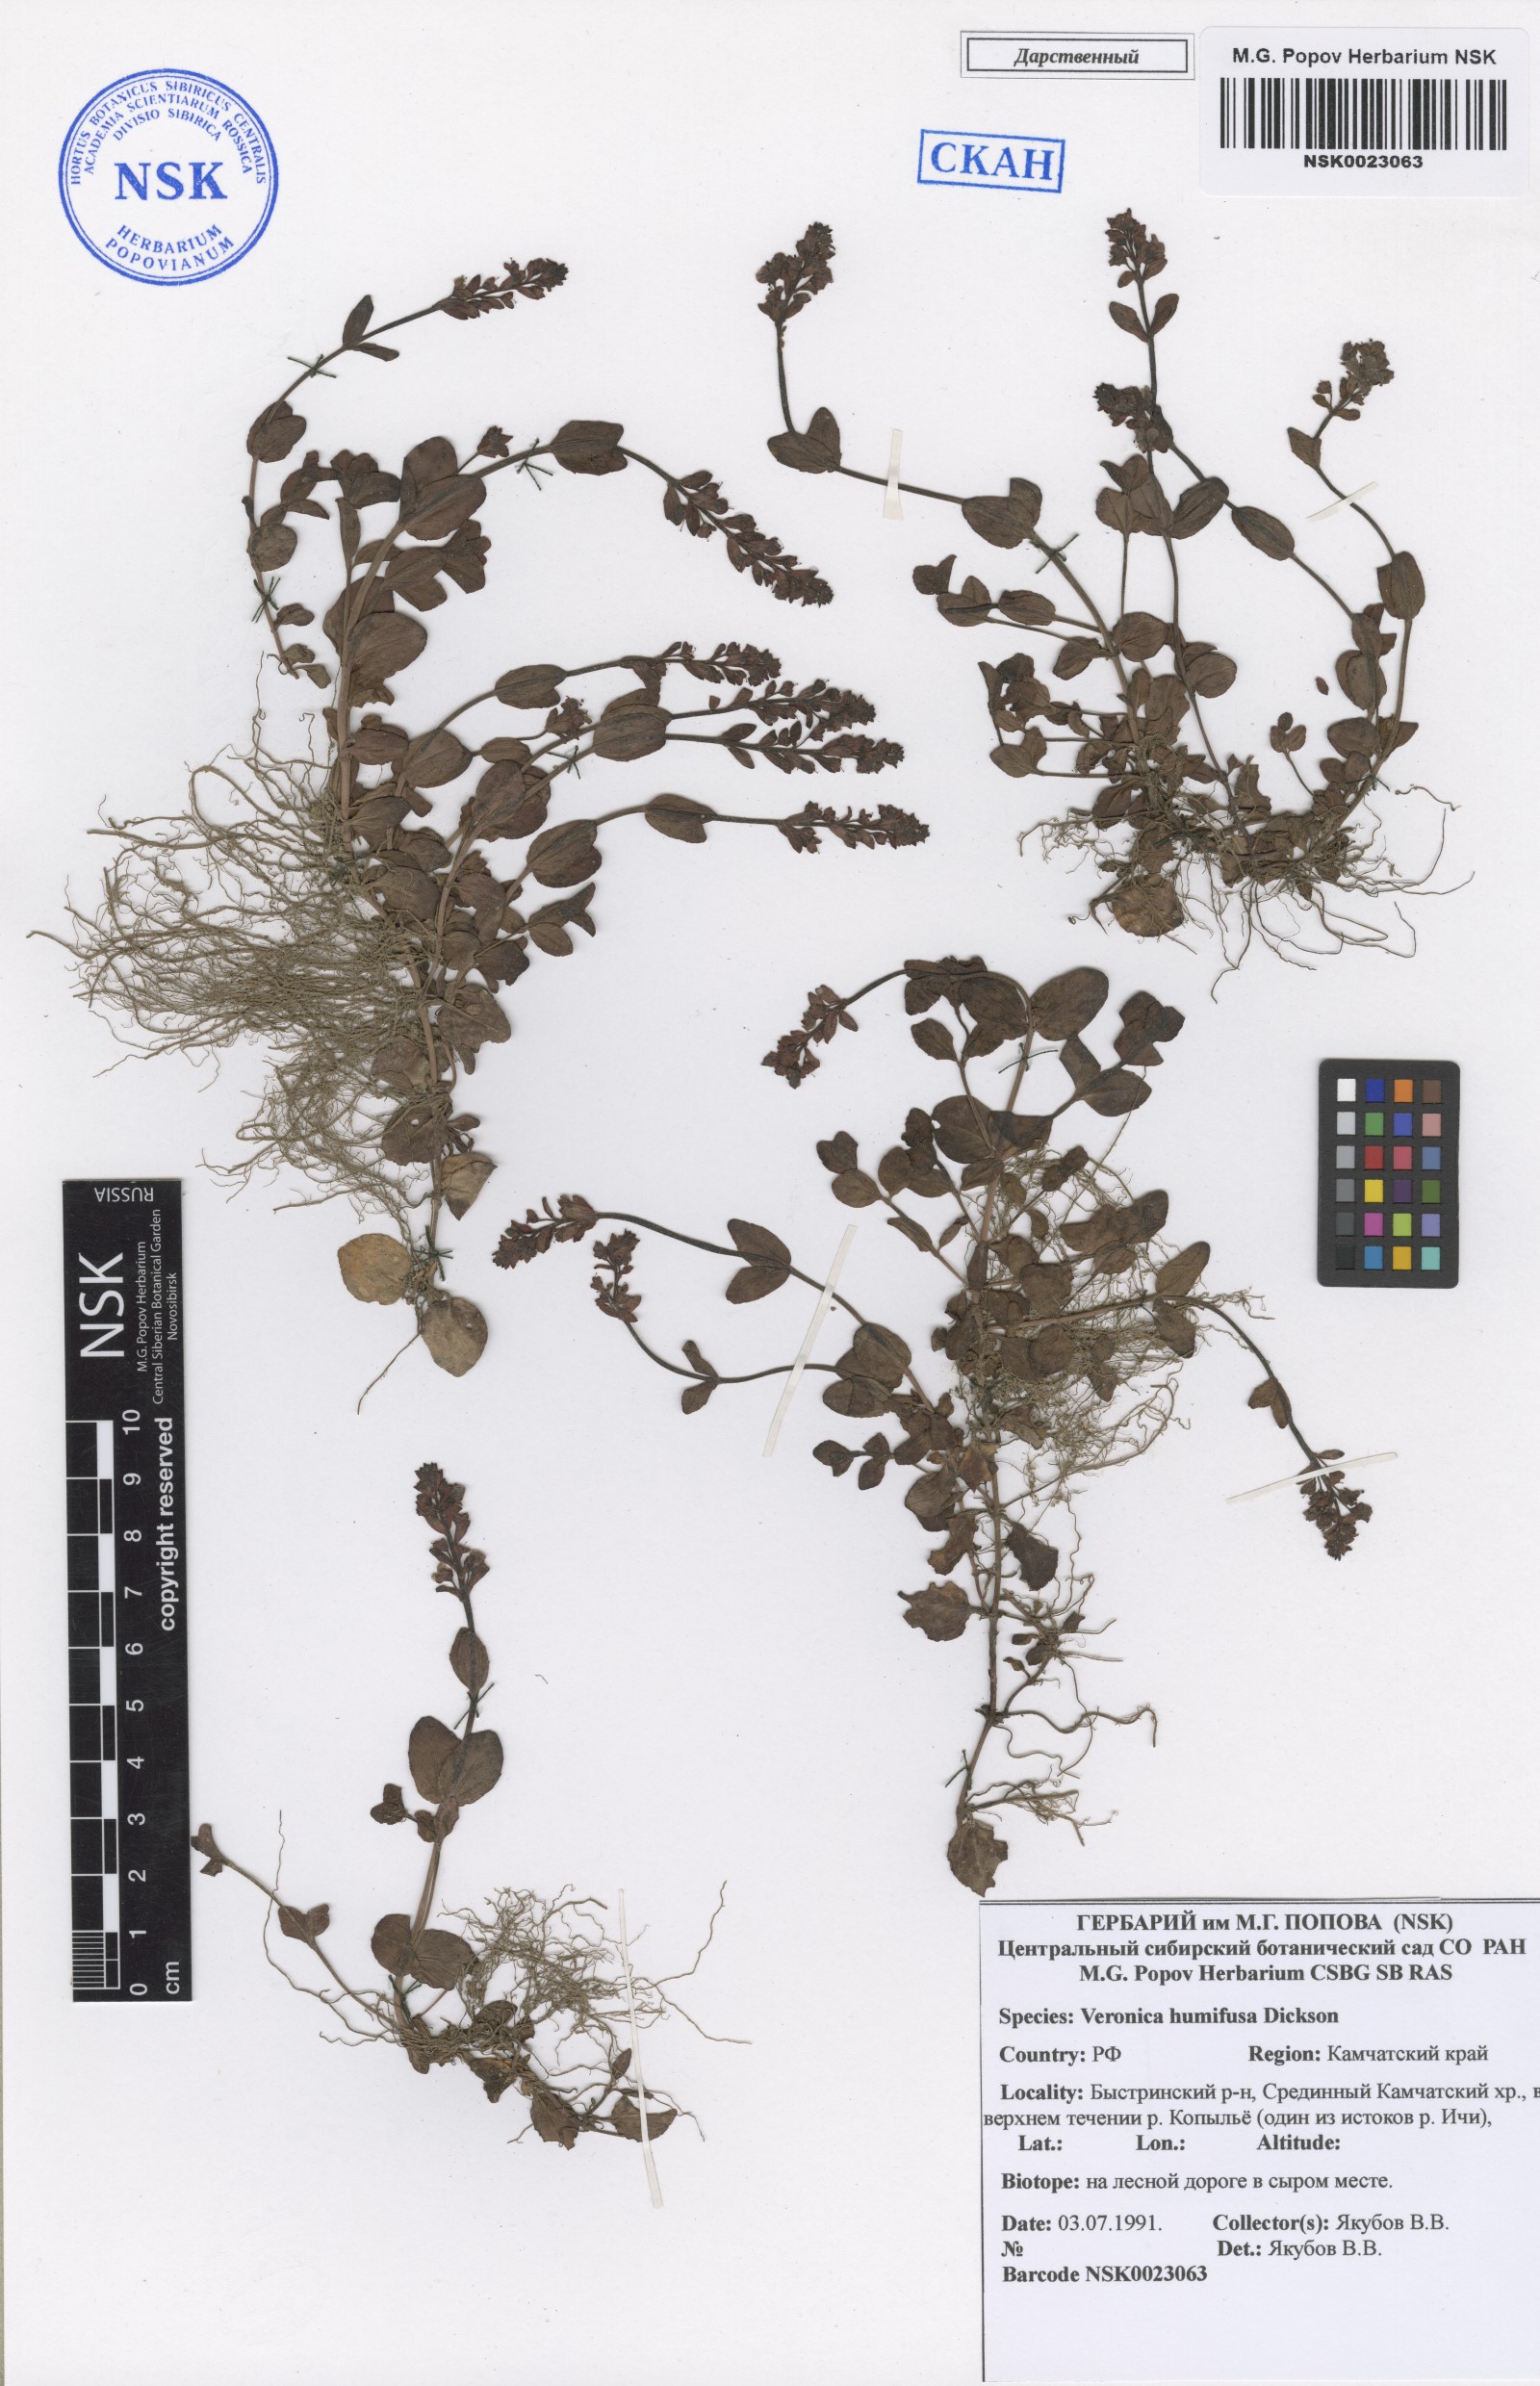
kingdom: Plantae
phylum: Tracheophyta
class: Magnoliopsida
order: Lamiales
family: Plantaginaceae
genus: Veronica
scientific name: Veronica serpyllifolia
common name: Thyme-leaved speedwell
